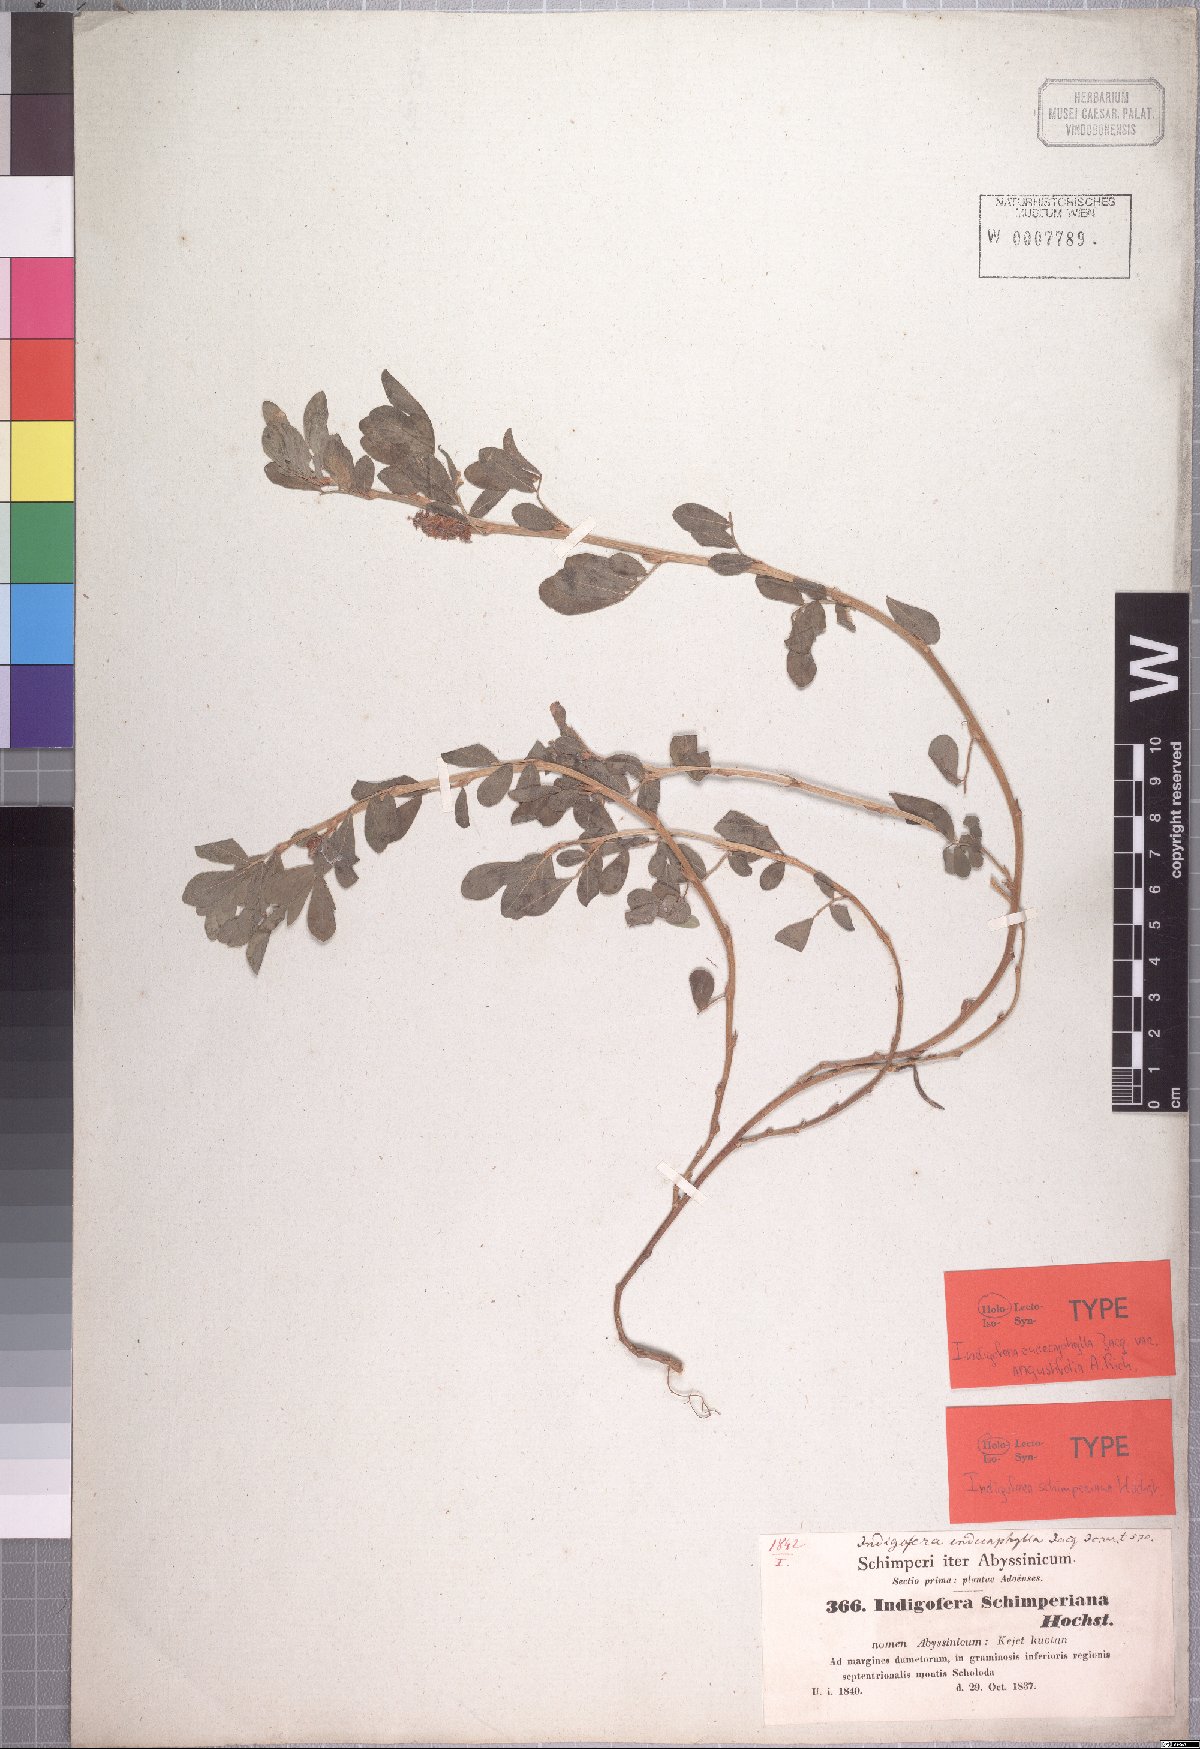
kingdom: Plantae
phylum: Tracheophyta
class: Magnoliopsida
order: Fabales
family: Fabaceae
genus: Indigofera
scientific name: Indigofera spicata
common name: Creeping indigo
